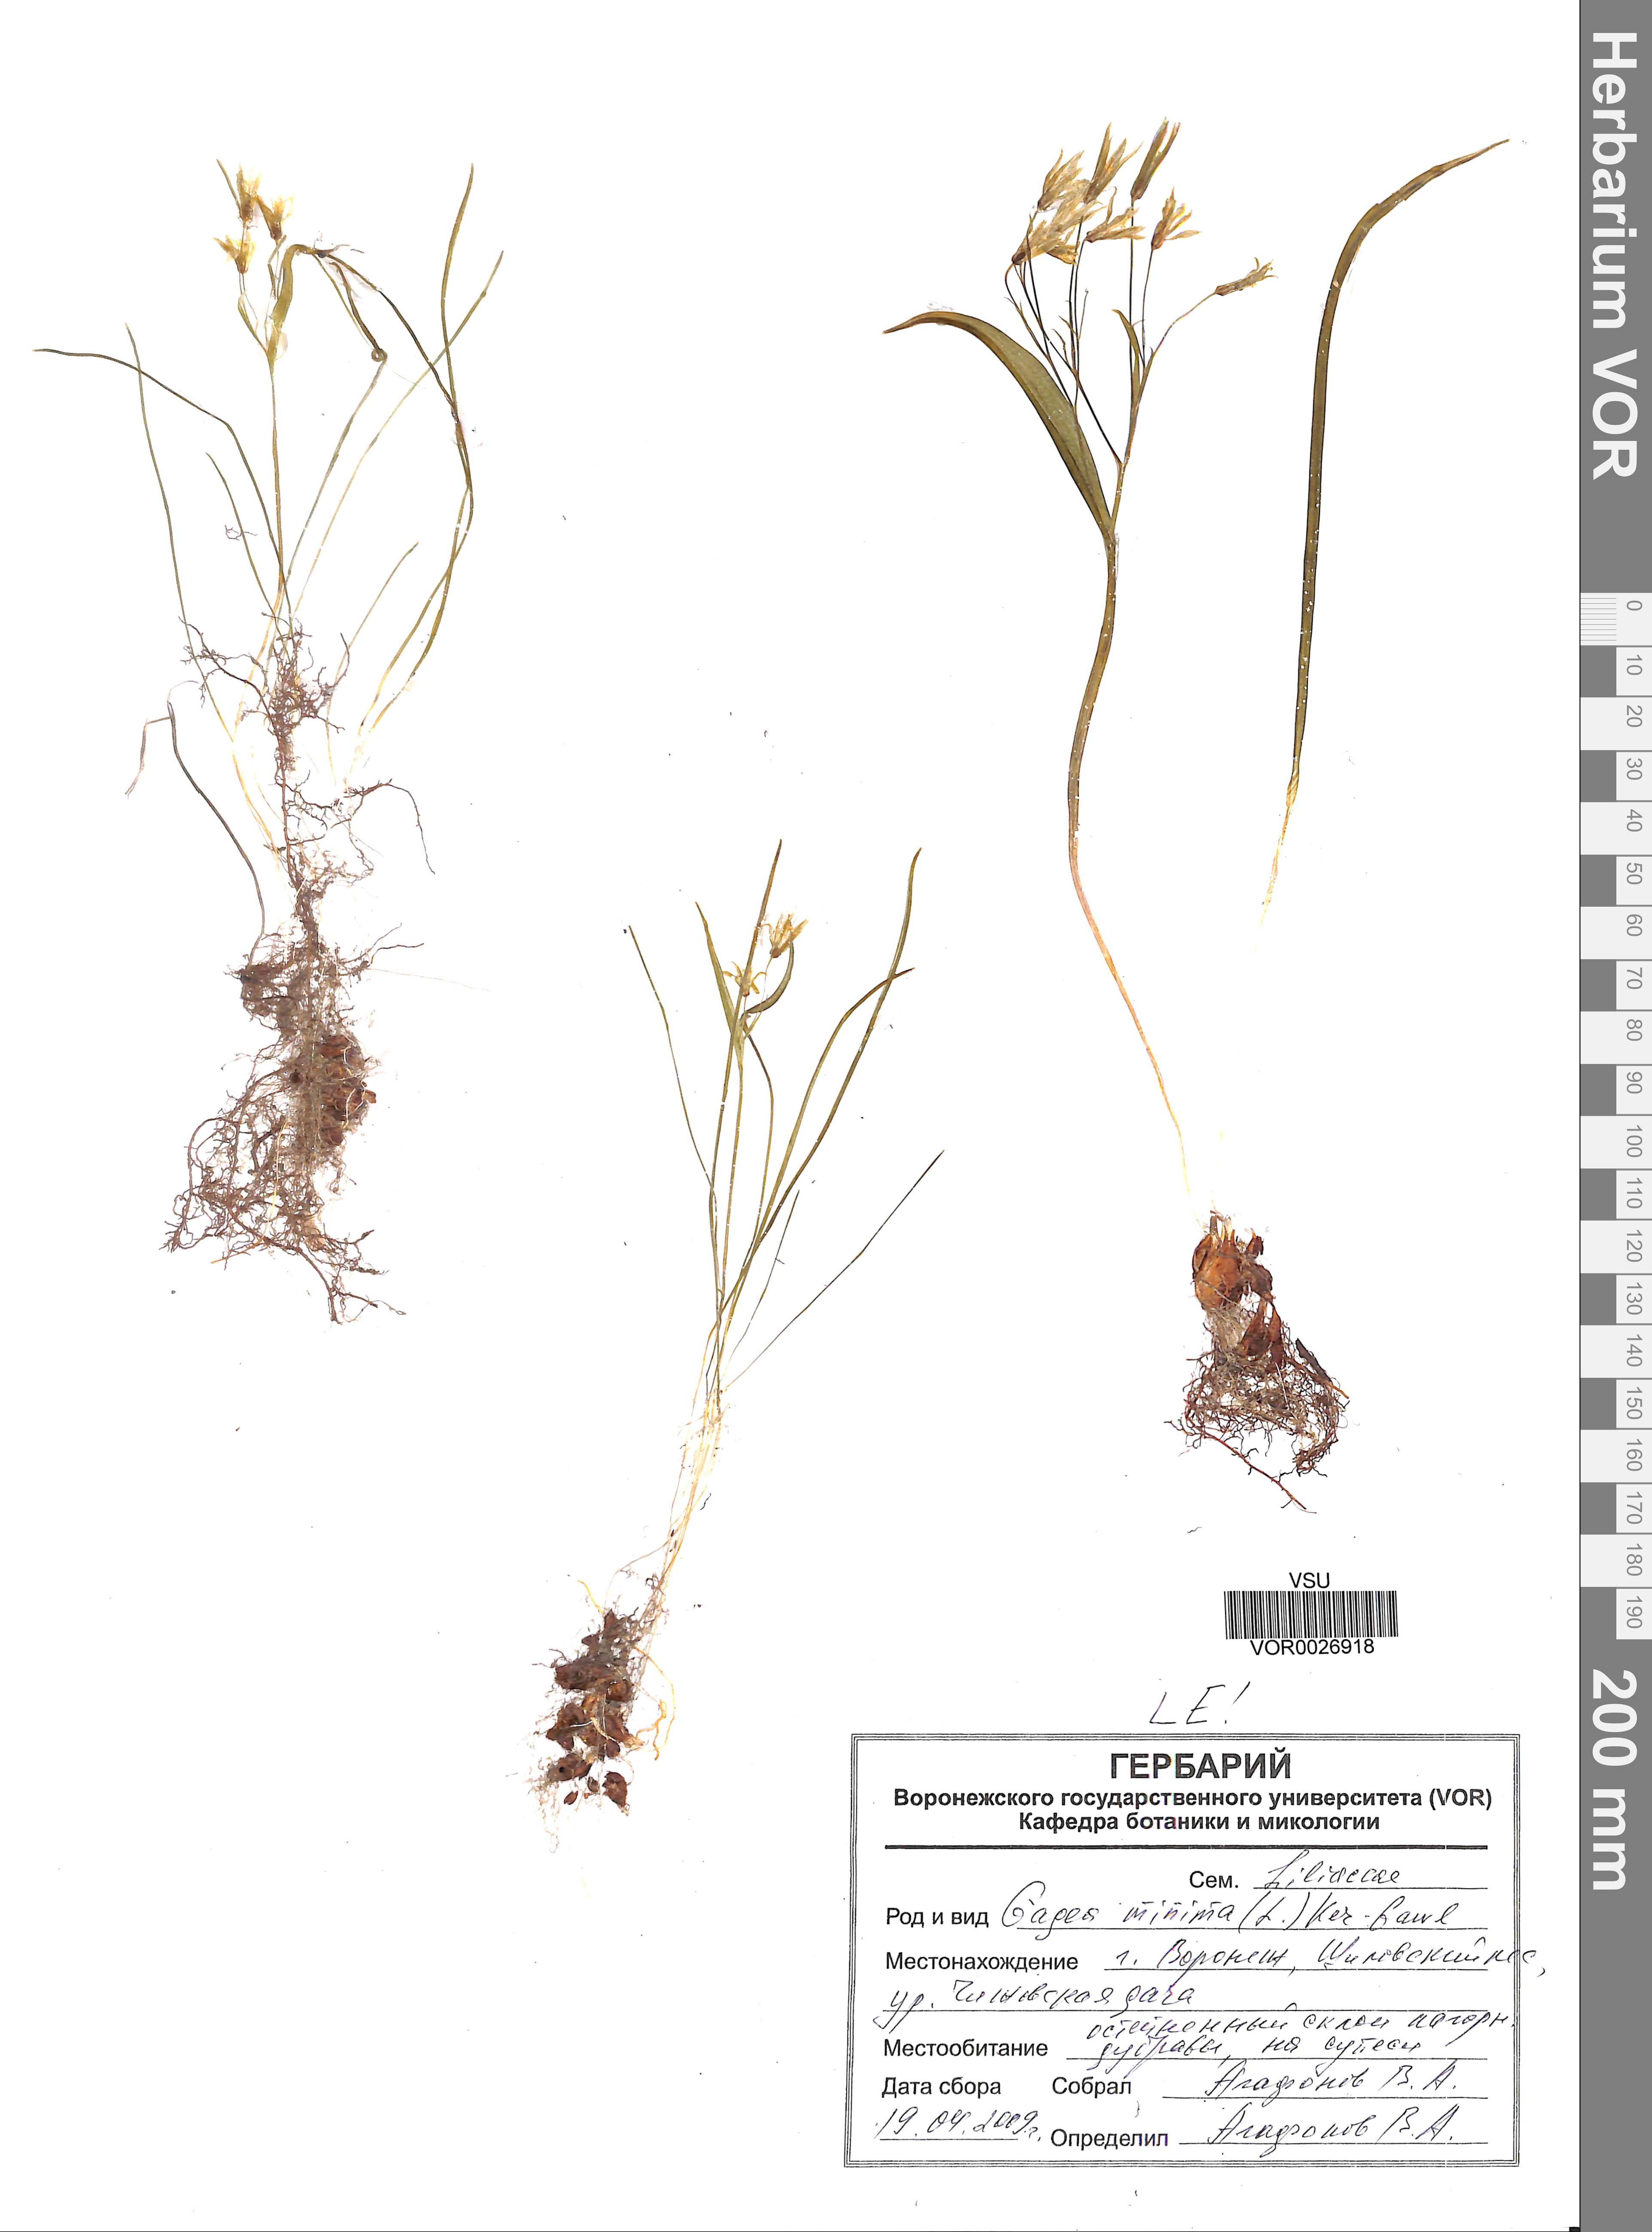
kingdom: Plantae
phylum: Tracheophyta
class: Liliopsida
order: Liliales
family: Liliaceae
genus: Gagea
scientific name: Gagea minima
